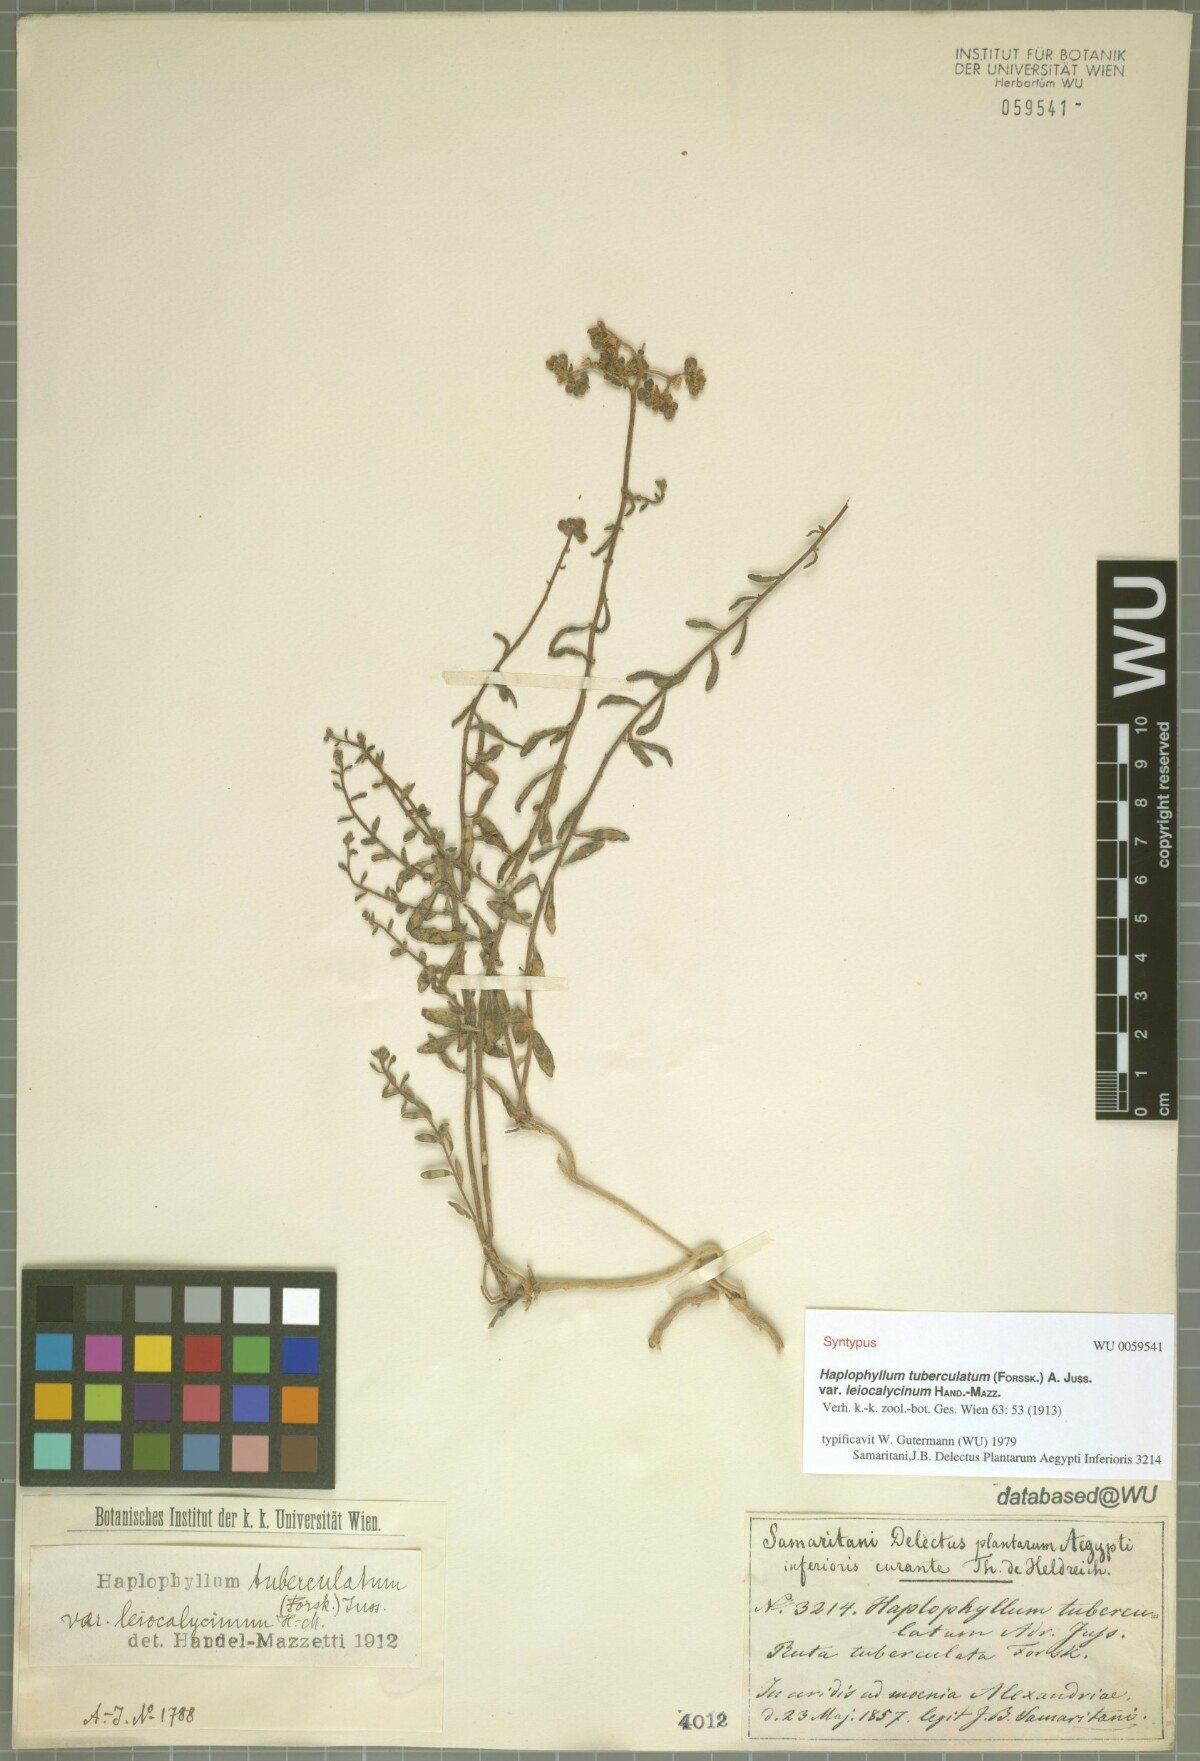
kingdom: Plantae
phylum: Tracheophyta
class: Magnoliopsida
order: Sapindales
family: Rutaceae
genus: Haplophyllum
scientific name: Haplophyllum tuberculatum
